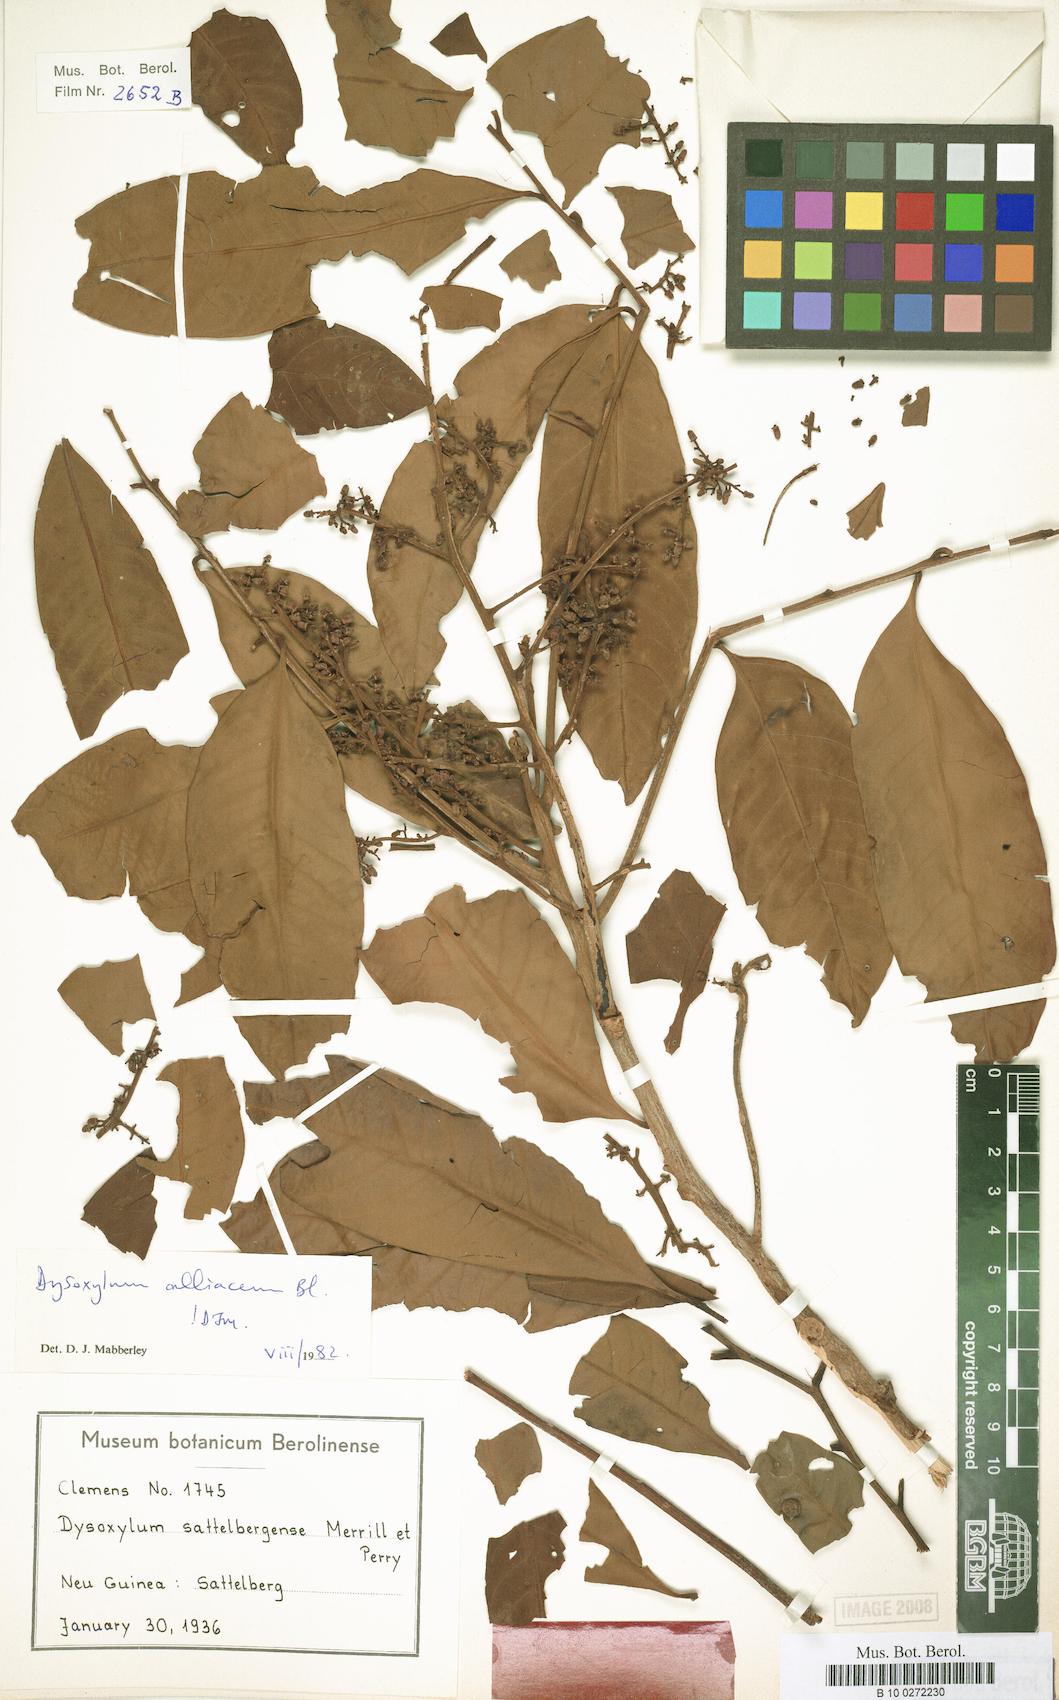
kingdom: Plantae
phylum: Tracheophyta
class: Magnoliopsida
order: Sapindales
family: Meliaceae
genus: Prasoxylon
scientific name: Prasoxylon alliaceum
